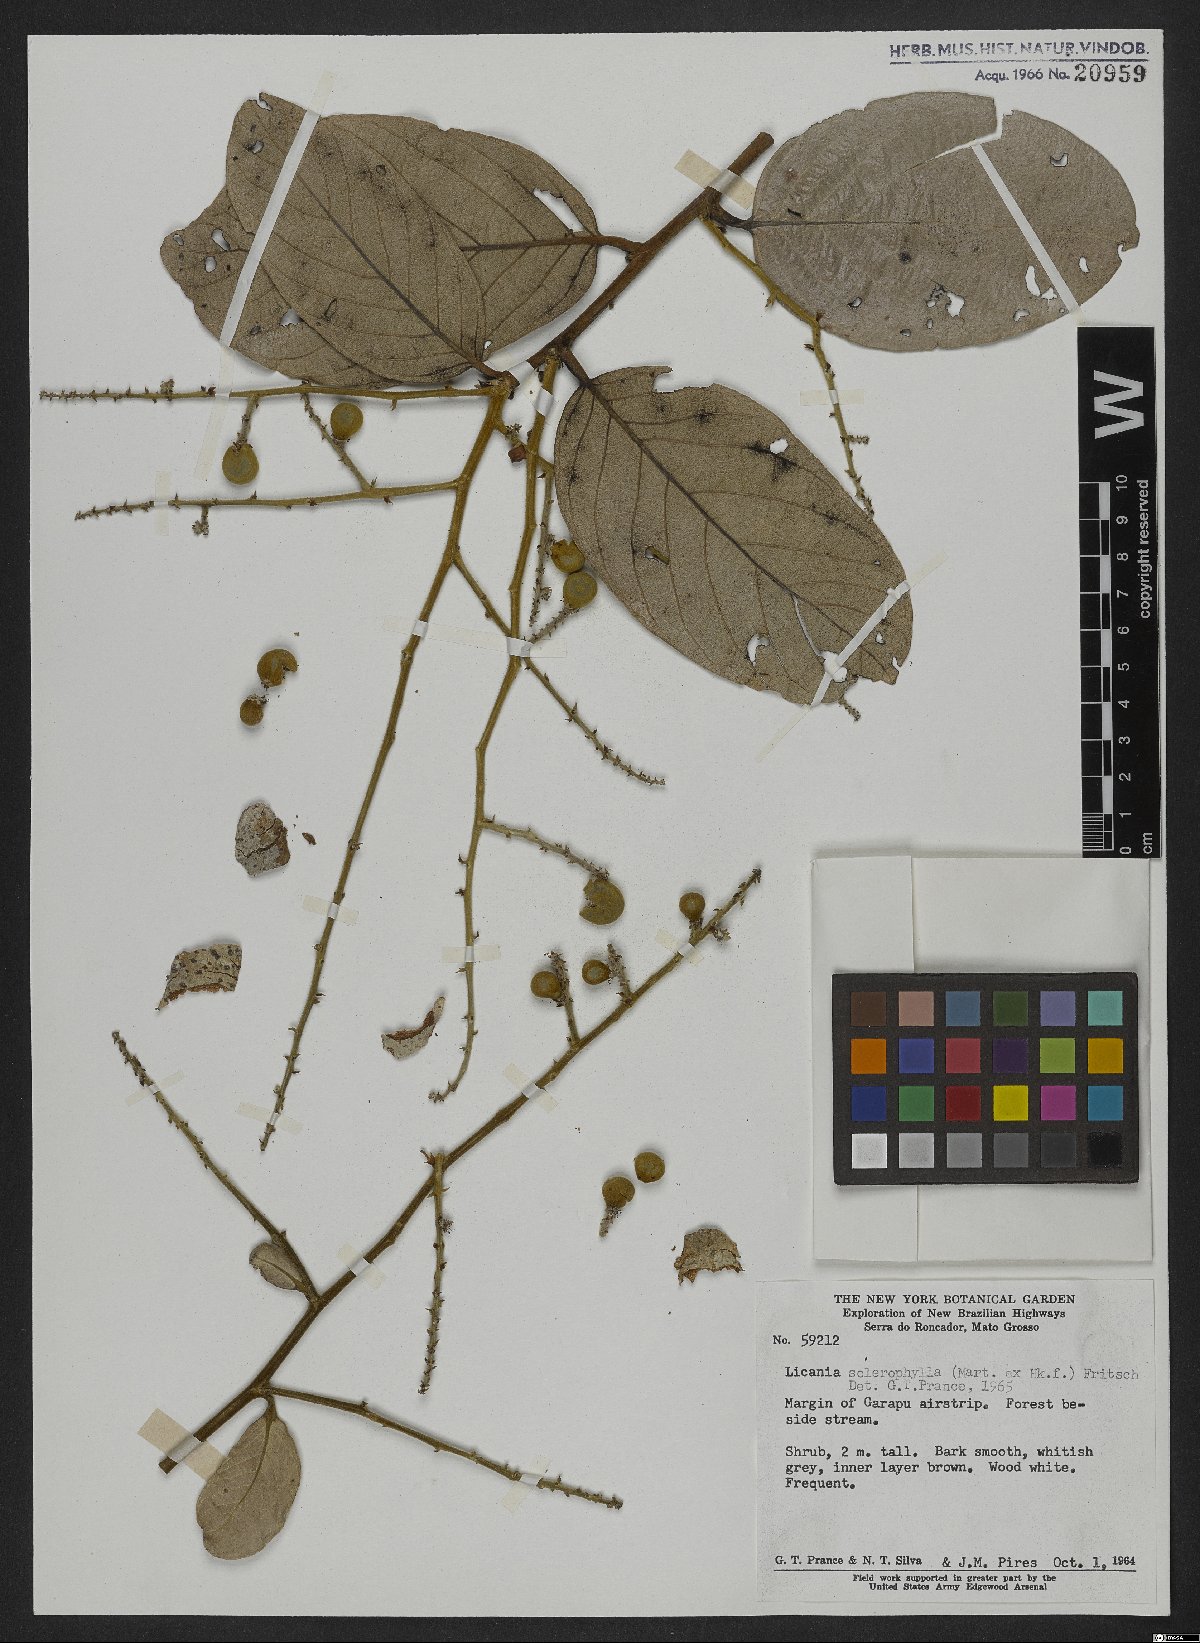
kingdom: Plantae
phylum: Tracheophyta
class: Magnoliopsida
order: Malpighiales
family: Chrysobalanaceae
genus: Leptobalanus
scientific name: Leptobalanus sclerophyllus
